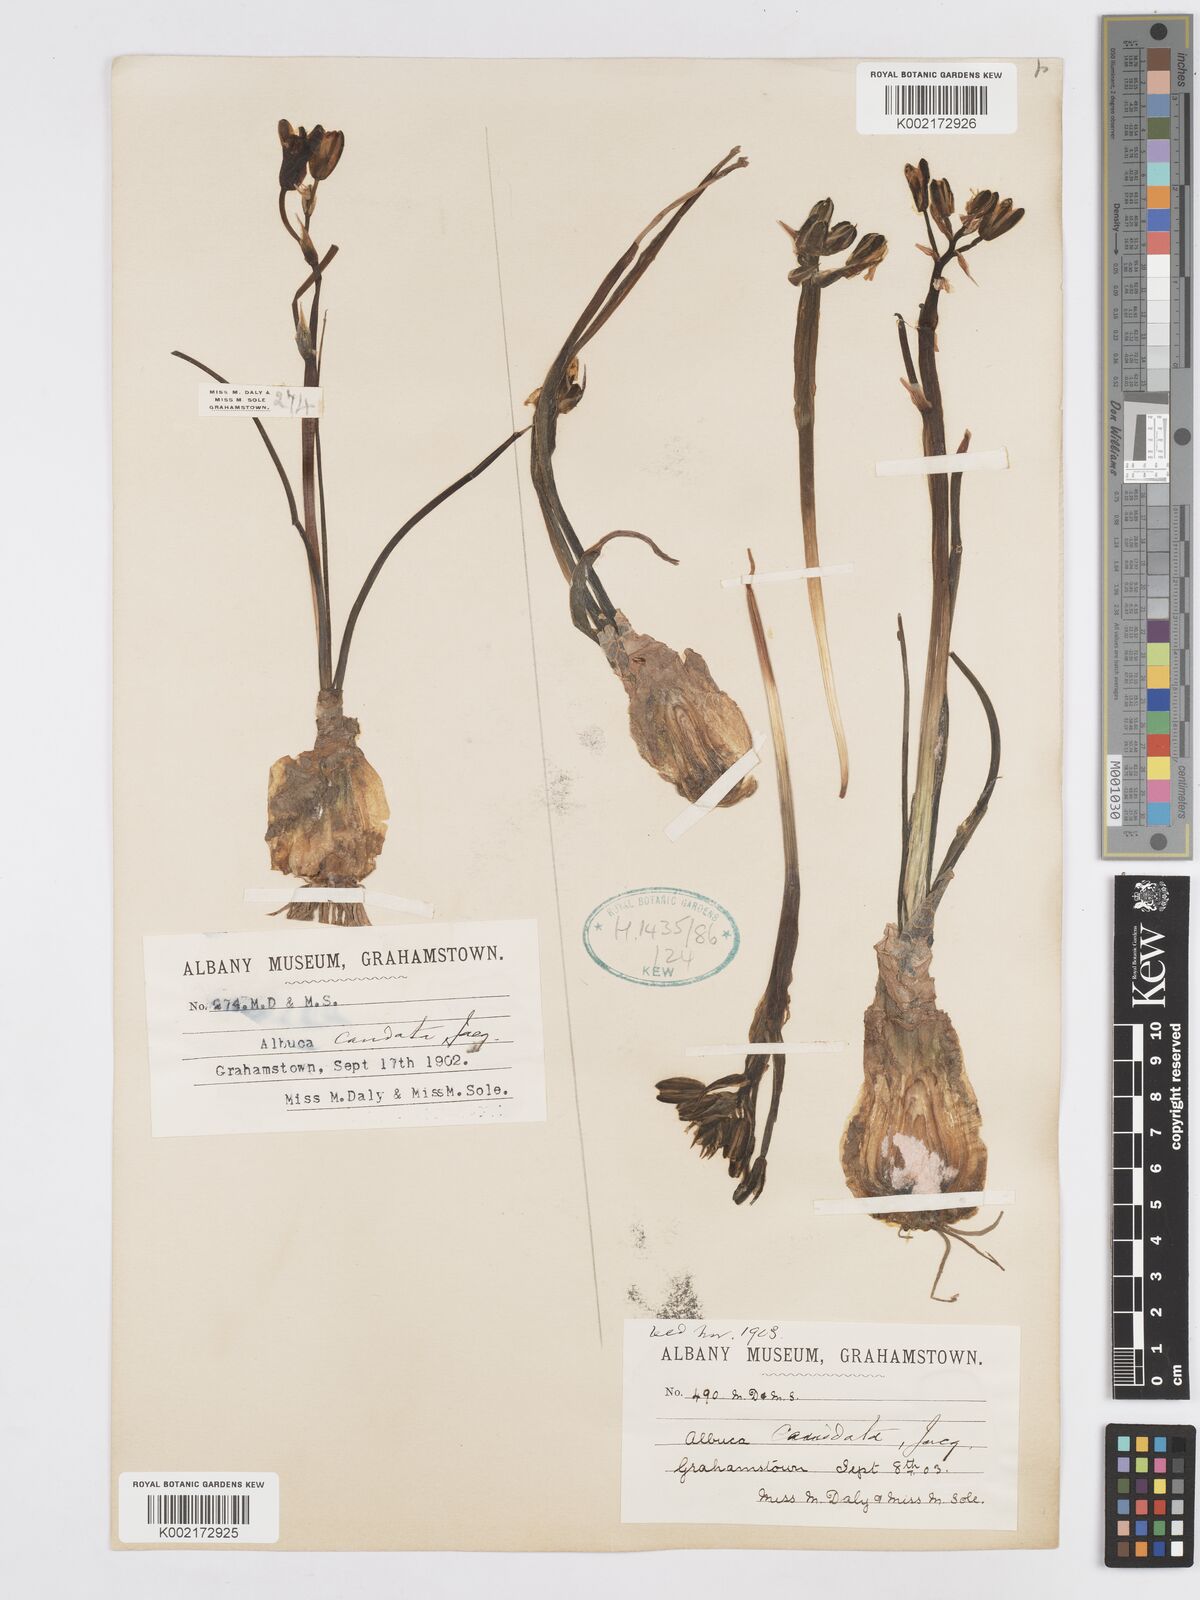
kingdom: Plantae
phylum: Tracheophyta
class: Liliopsida
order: Asparagales
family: Asparagaceae
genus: Albuca
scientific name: Albuca caudata
